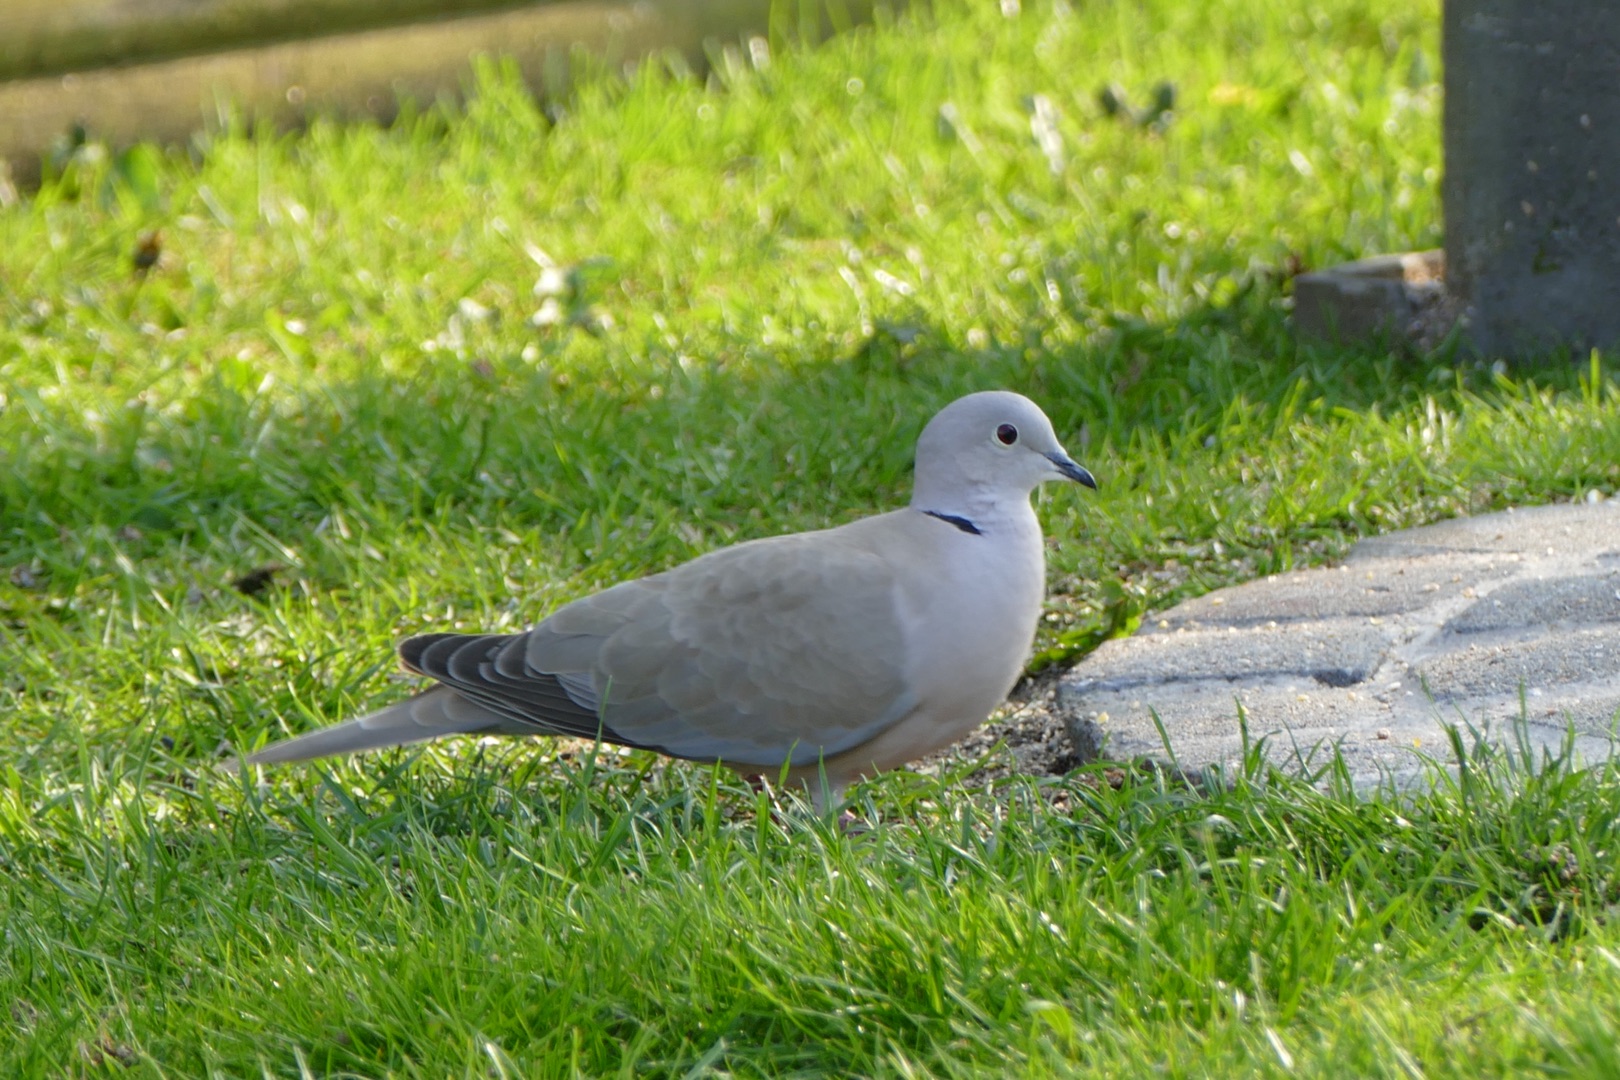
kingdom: Animalia
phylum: Chordata
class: Aves
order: Columbiformes
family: Columbidae
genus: Streptopelia
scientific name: Streptopelia decaocto
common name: Tyrkerdue
